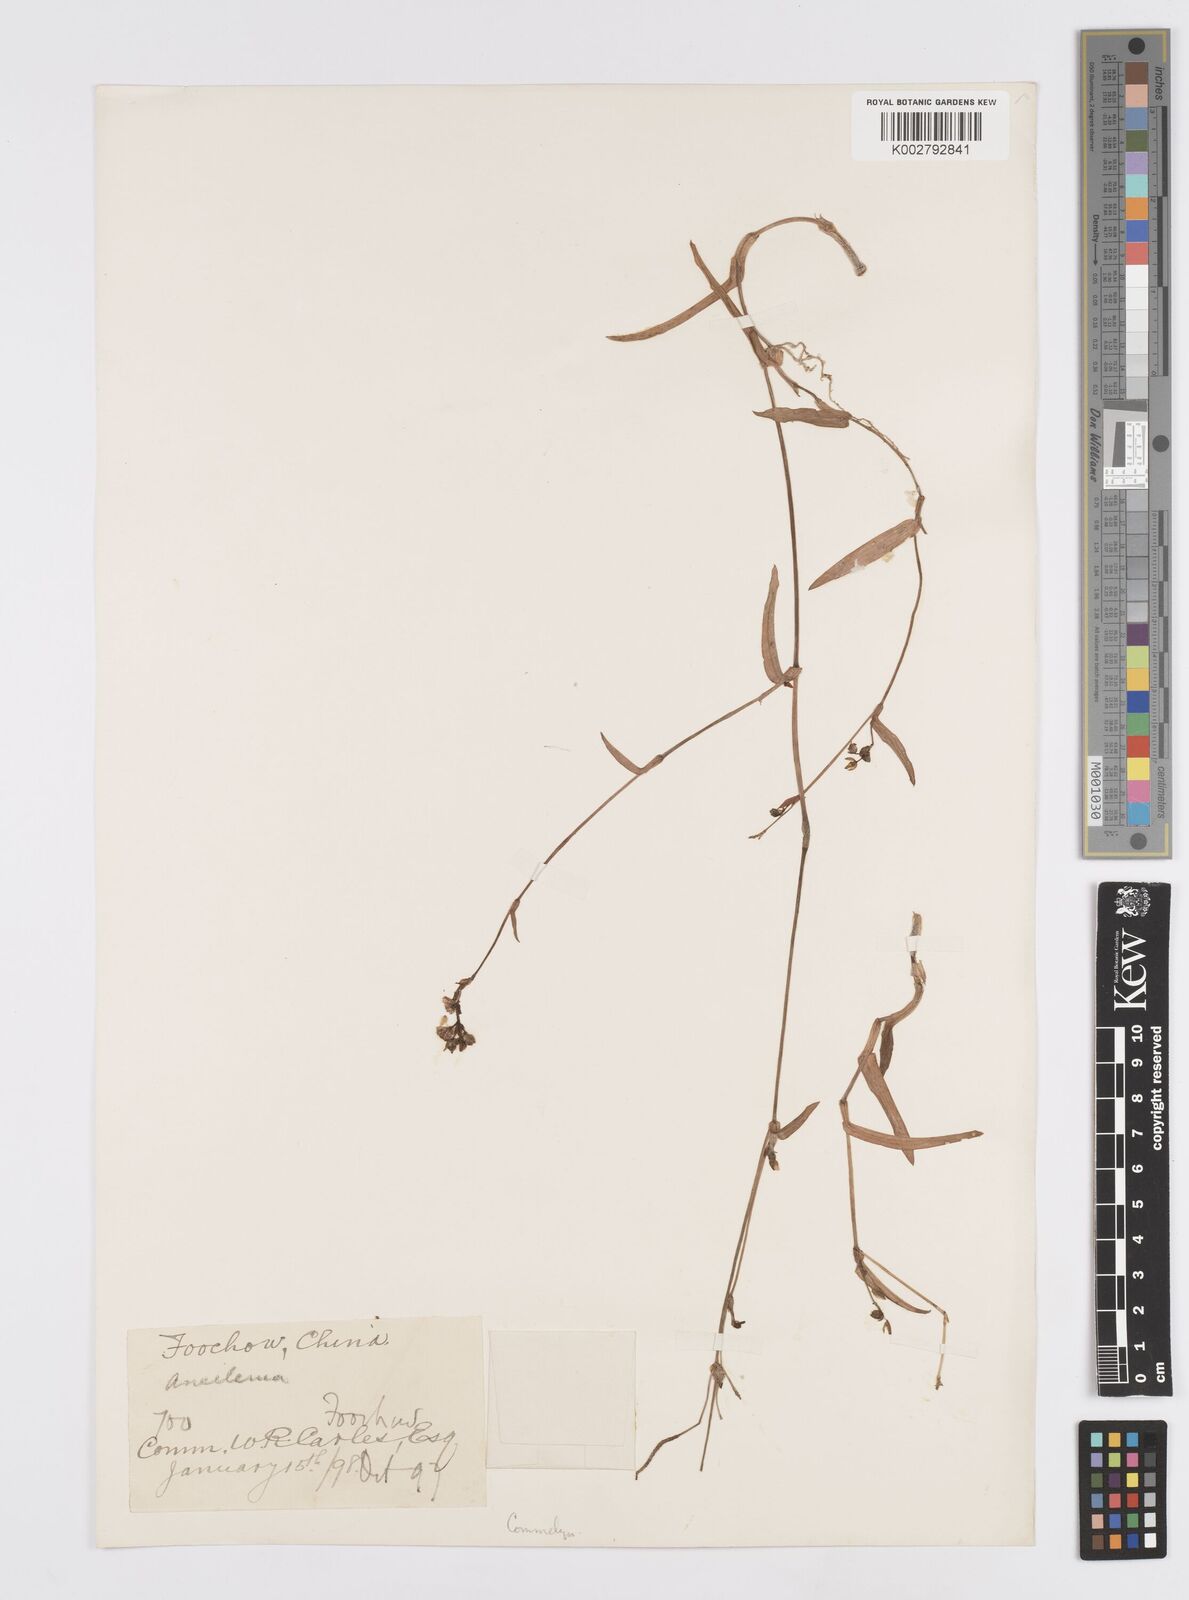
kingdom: Plantae
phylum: Tracheophyta
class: Liliopsida
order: Commelinales
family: Commelinaceae
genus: Murdannia
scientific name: Murdannia loriformis
